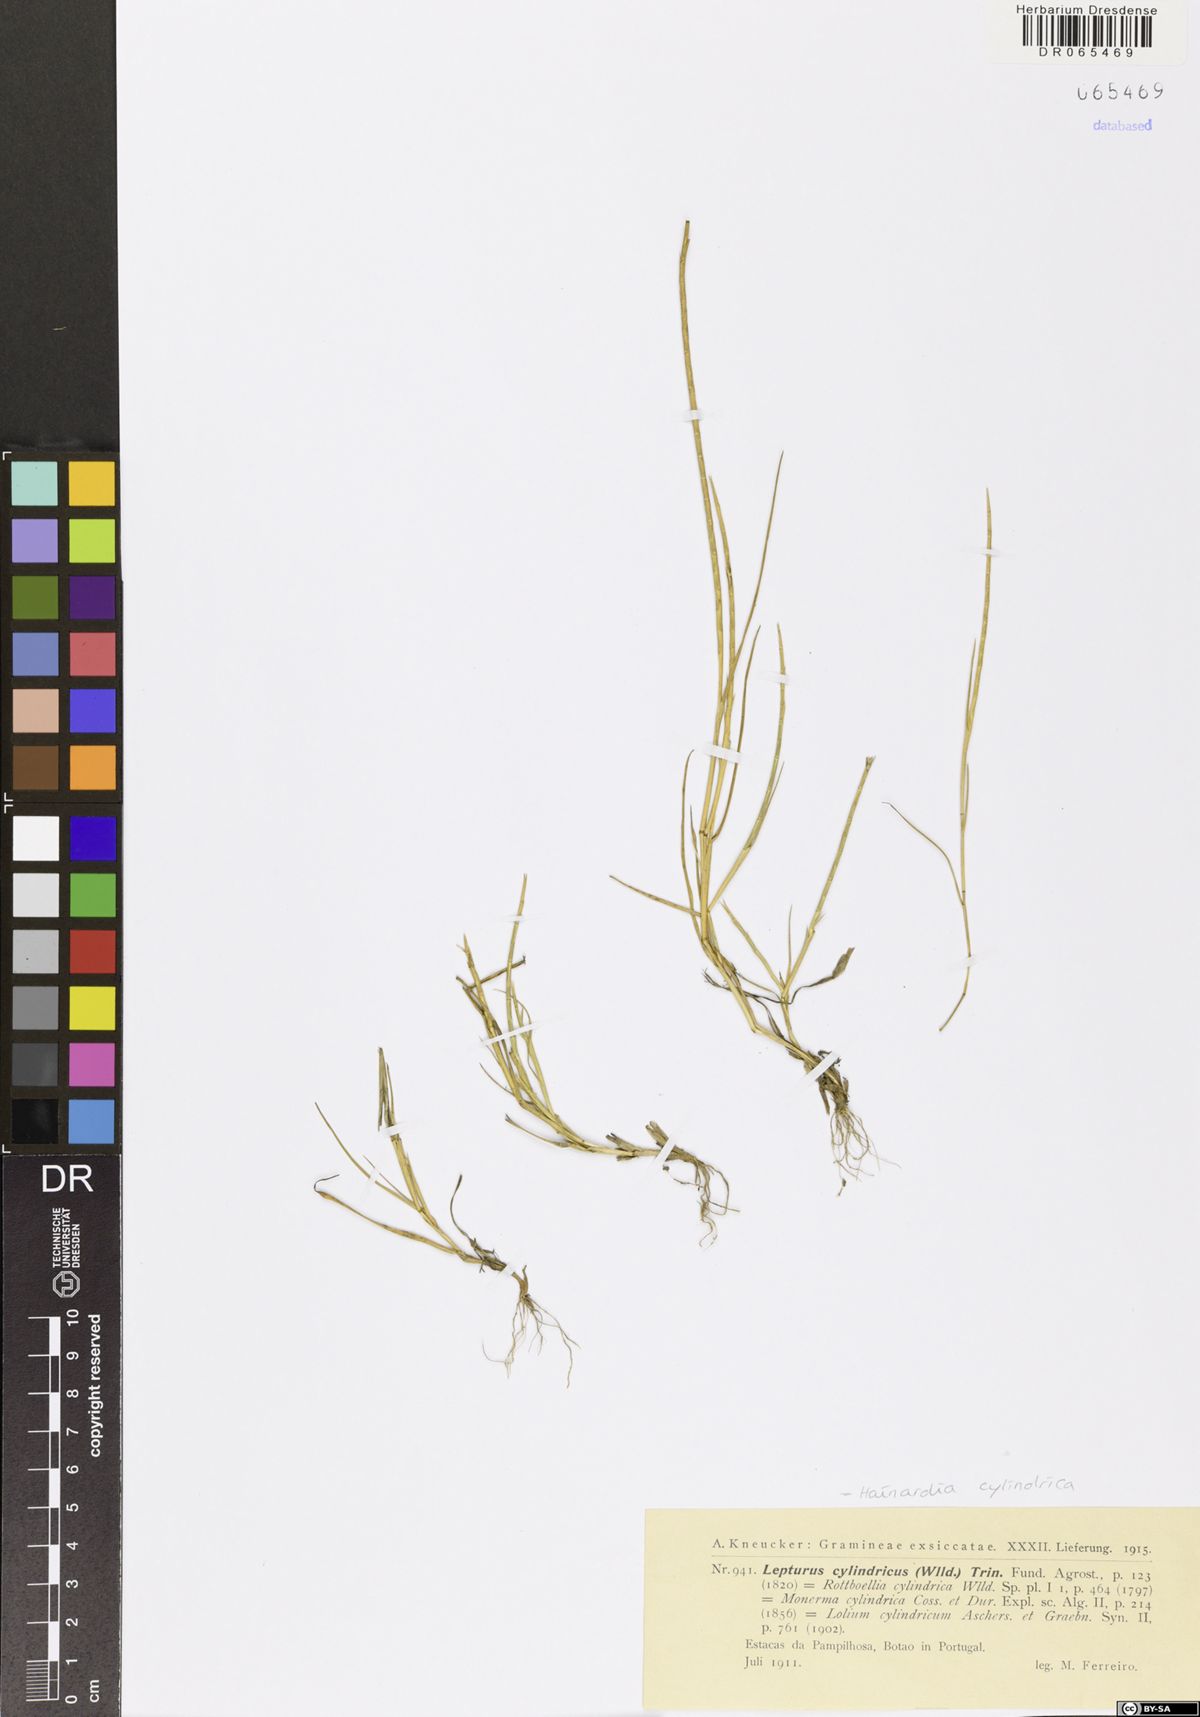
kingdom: Plantae
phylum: Tracheophyta
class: Liliopsida
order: Poales
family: Poaceae
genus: Parapholis
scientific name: Parapholis cylindrica
